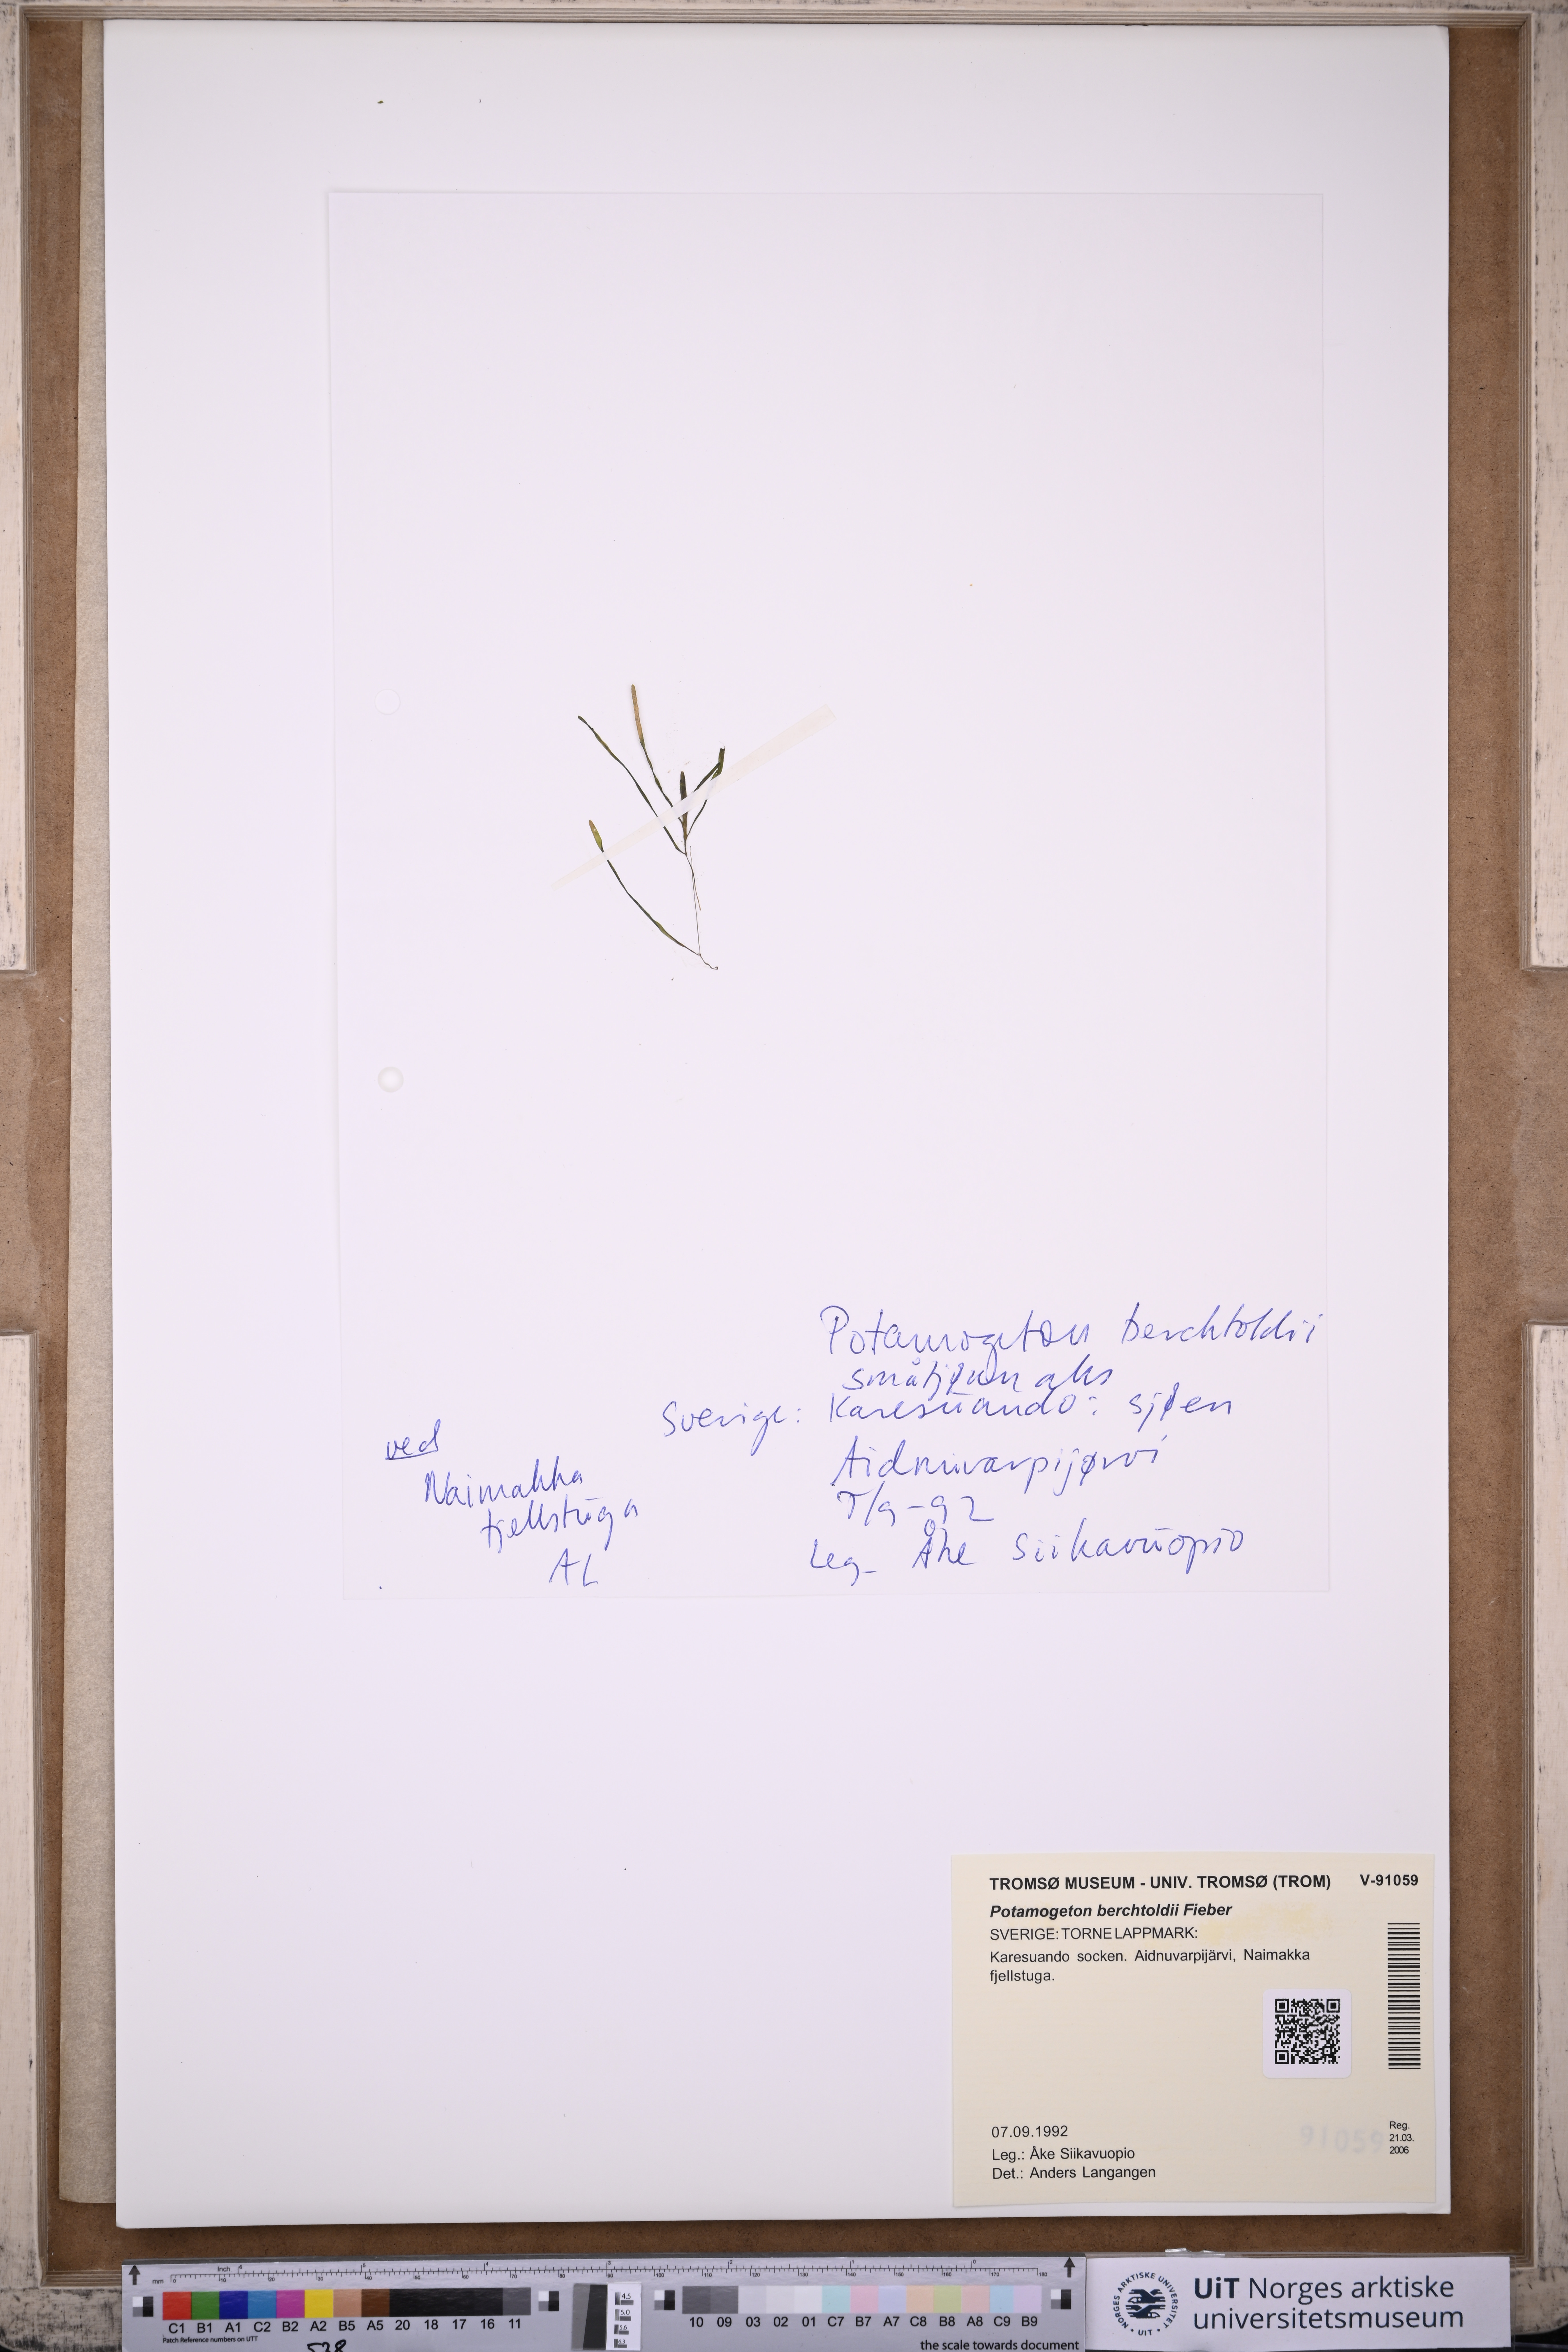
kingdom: Plantae
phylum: Tracheophyta
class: Liliopsida
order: Alismatales
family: Potamogetonaceae
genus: Potamogeton
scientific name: Potamogeton berchtoldii
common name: Small pondweed
